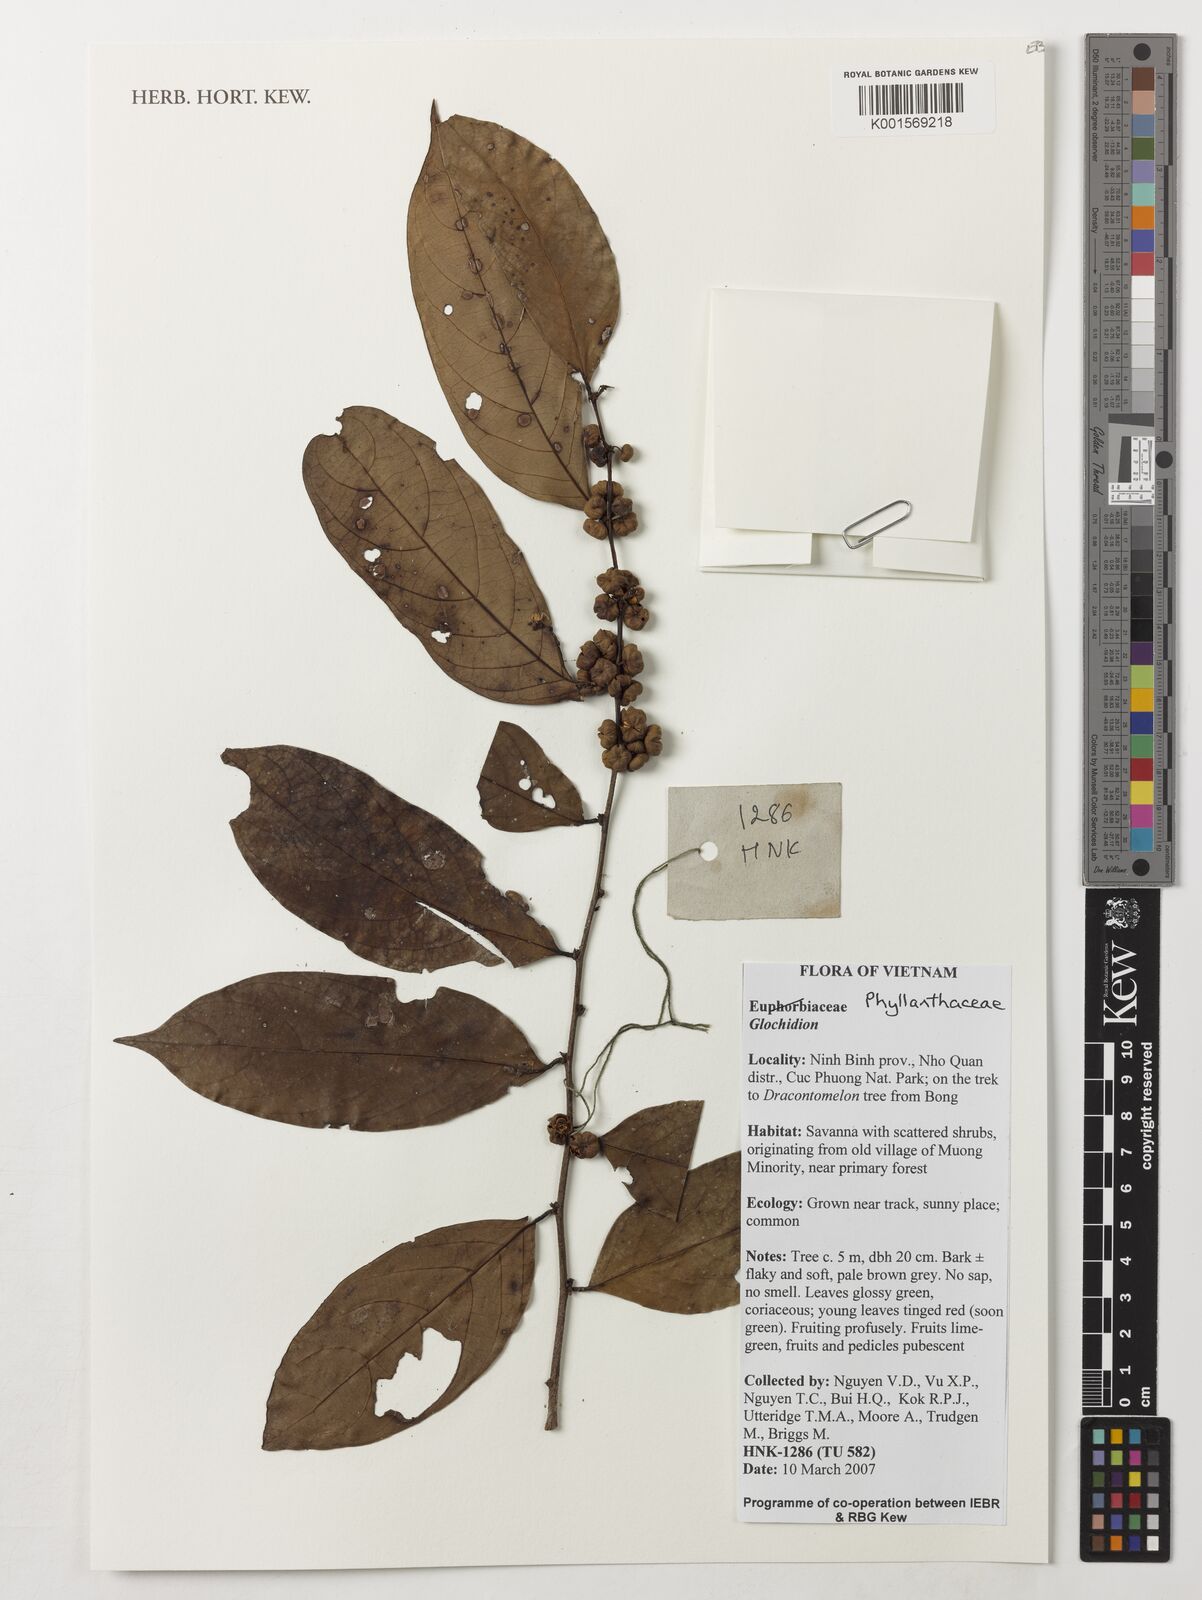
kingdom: Plantae
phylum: Tracheophyta
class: Magnoliopsida
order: Malpighiales
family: Phyllanthaceae
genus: Glochidion
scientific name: Glochidion
